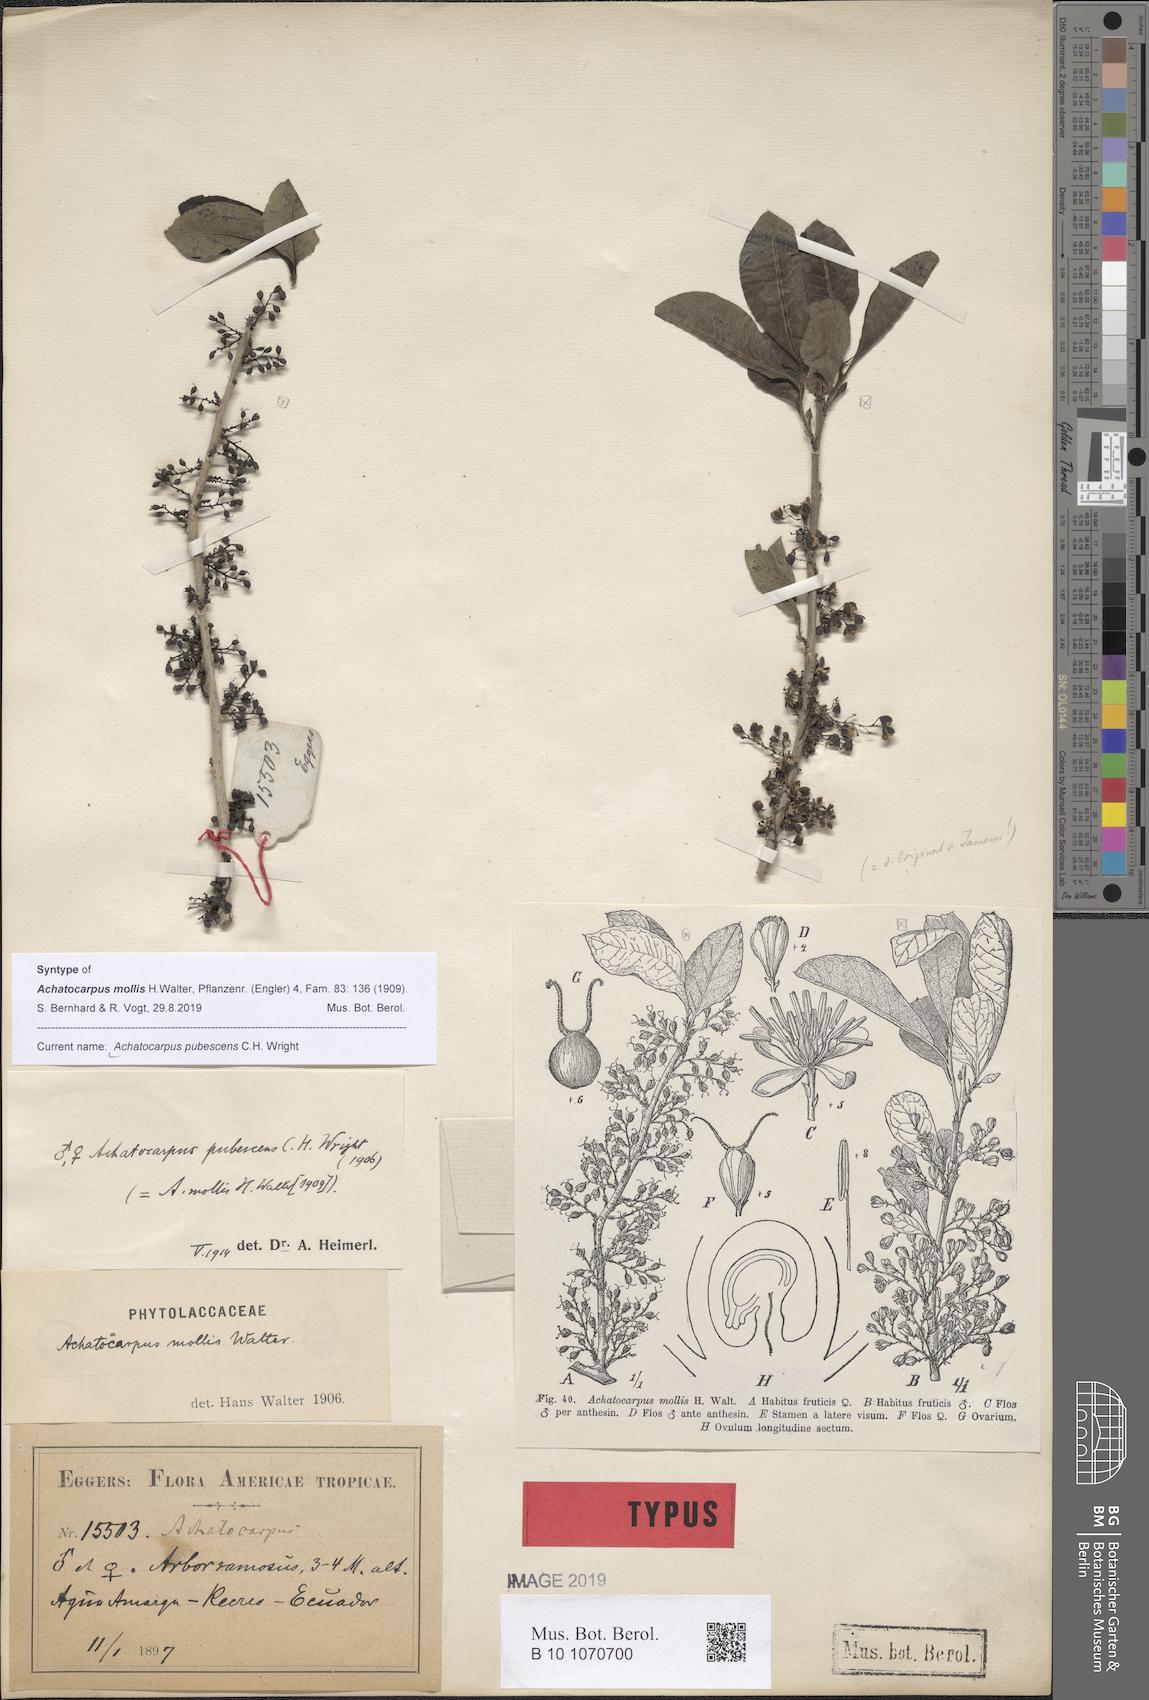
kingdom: Plantae
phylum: Tracheophyta
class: Magnoliopsida
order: Caryophyllales
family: Achatocarpaceae
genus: Achatocarpus
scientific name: Achatocarpus pubescens
